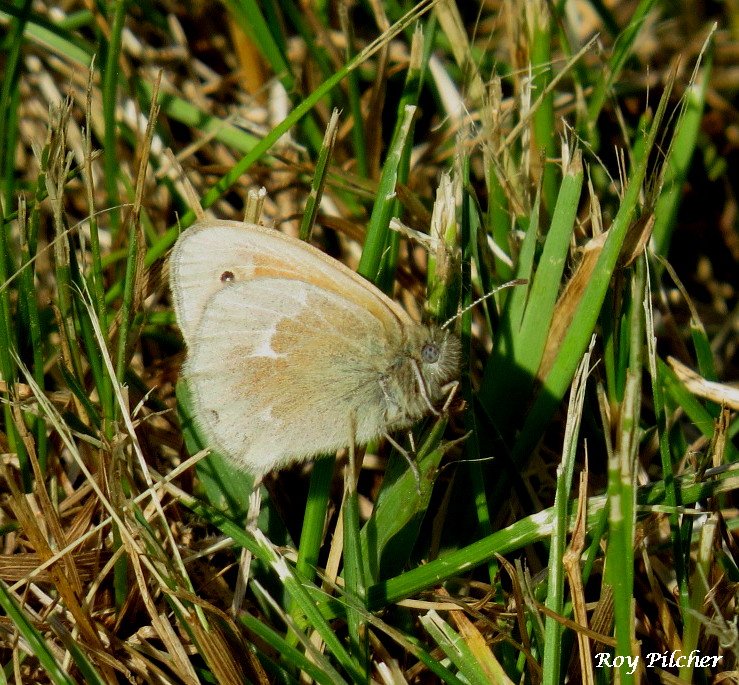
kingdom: Animalia
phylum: Arthropoda
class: Insecta
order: Lepidoptera
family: Nymphalidae
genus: Coenonympha
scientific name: Coenonympha tullia
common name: Large Heath
